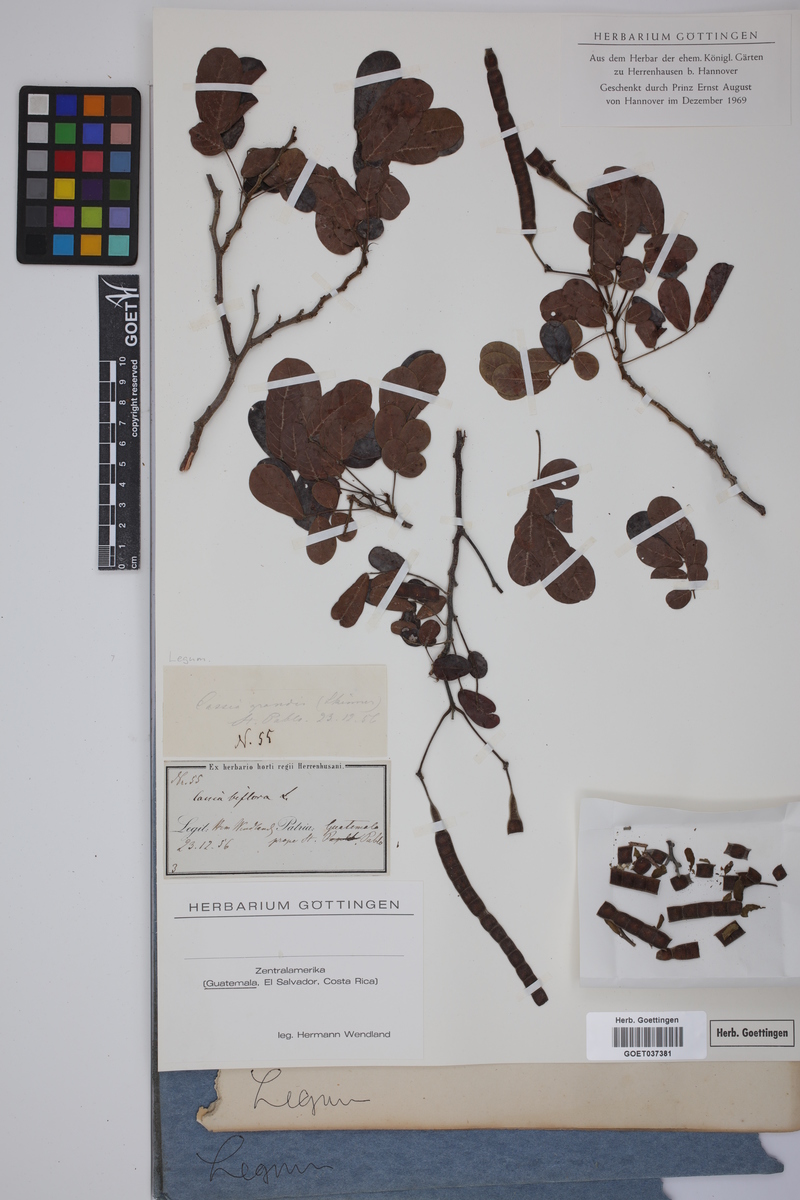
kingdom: Plantae
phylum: Tracheophyta
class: Magnoliopsida
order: Fabales
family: Fabaceae
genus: Senna
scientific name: Senna pallida
